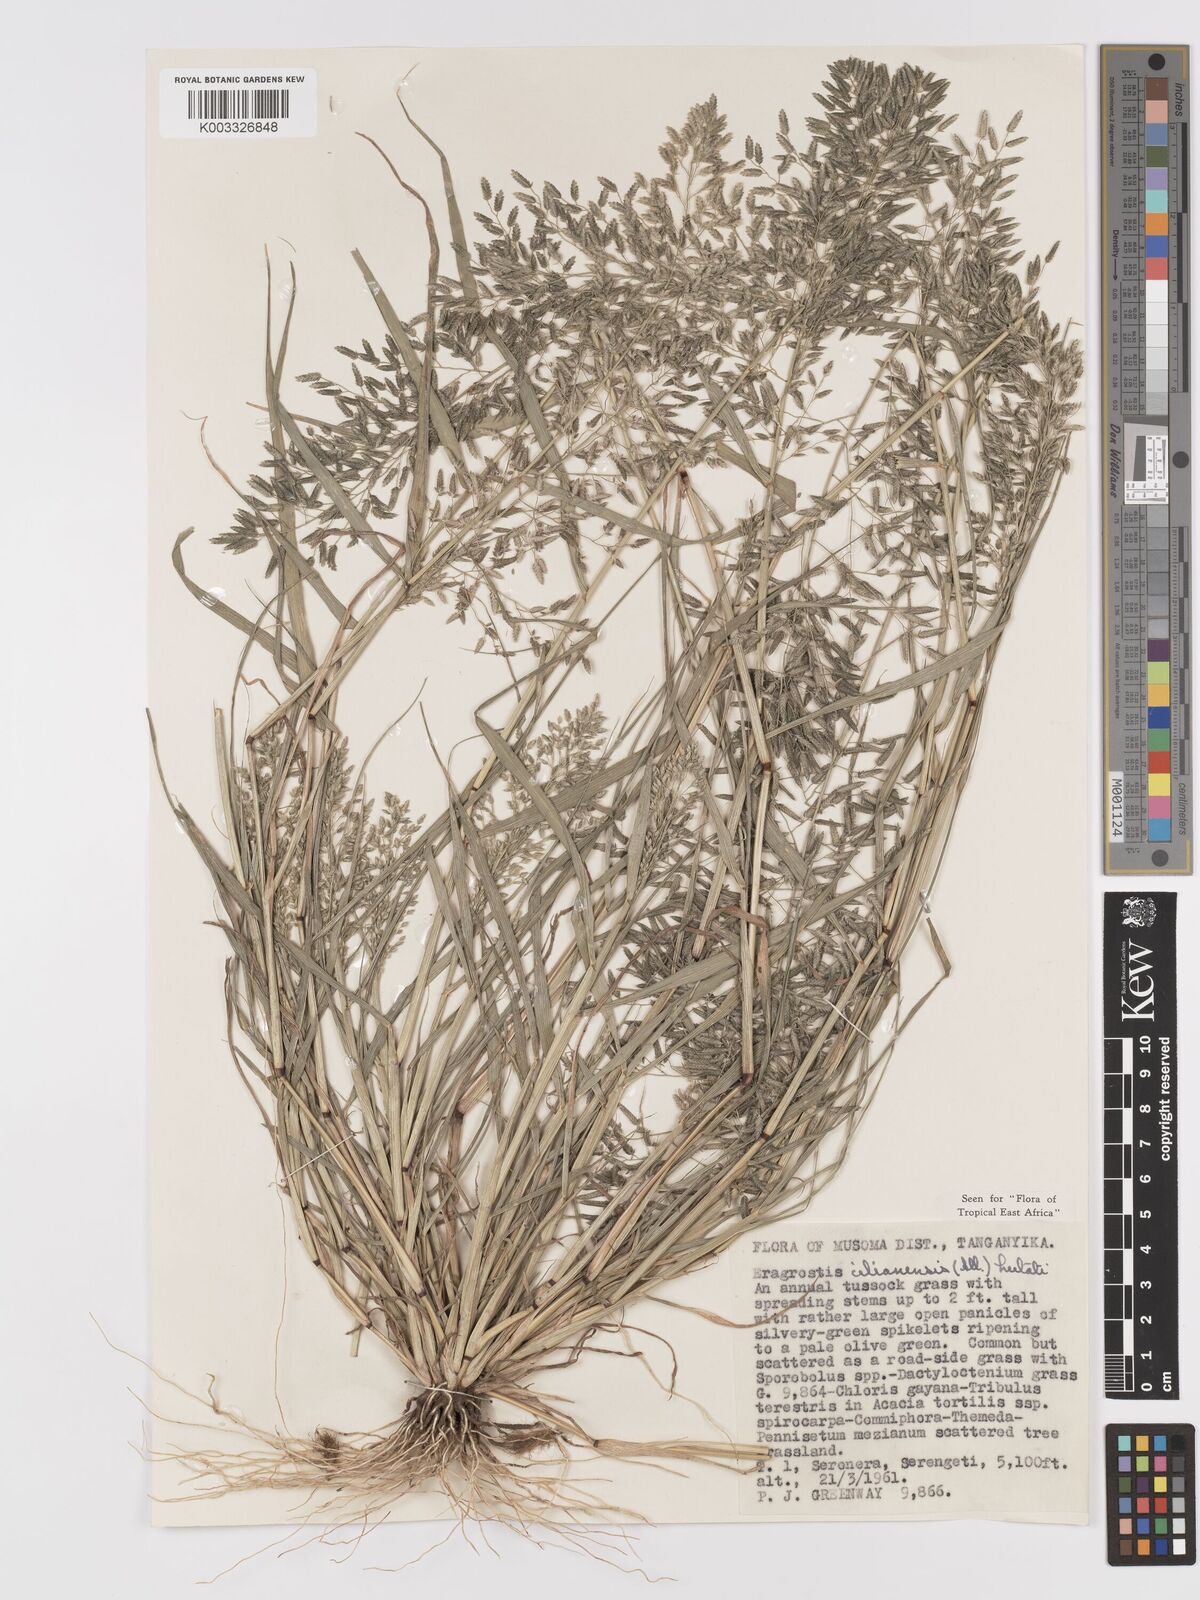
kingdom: Plantae
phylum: Tracheophyta
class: Liliopsida
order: Poales
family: Poaceae
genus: Eragrostis
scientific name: Eragrostis cilianensis
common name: Stinkgrass
